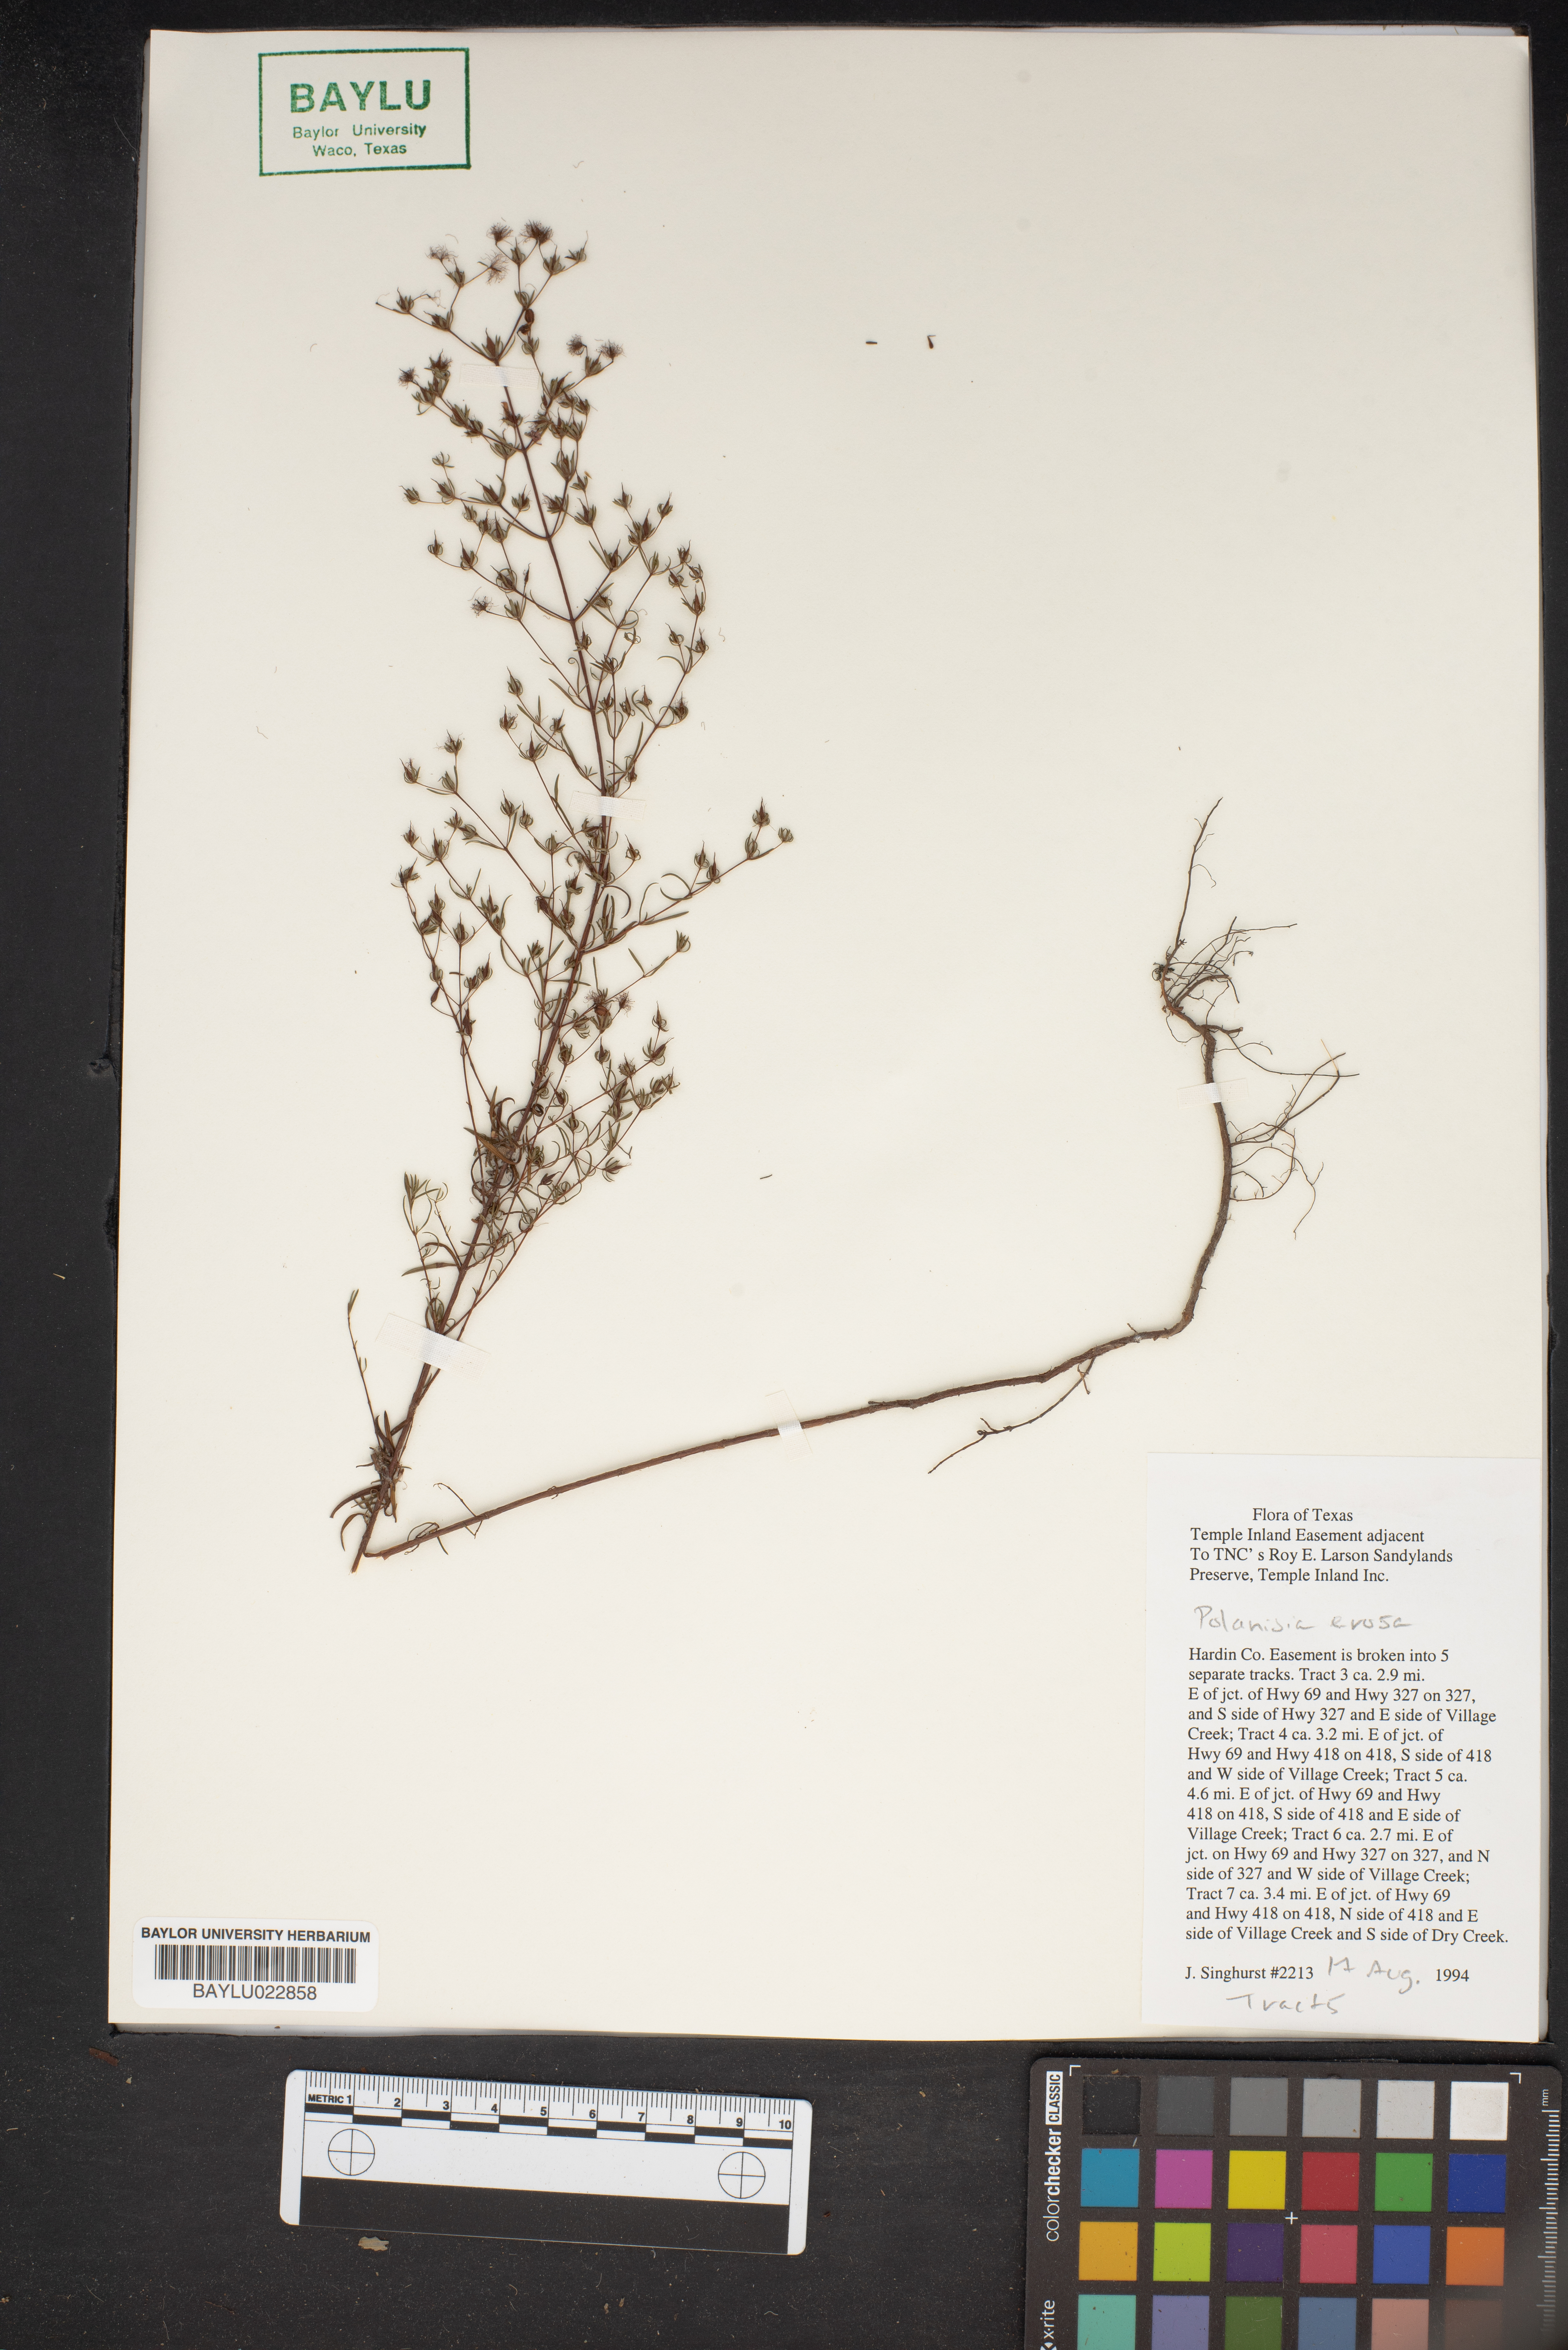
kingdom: Plantae
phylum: Tracheophyta
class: Magnoliopsida
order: Brassicales
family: Cleomaceae
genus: Polanisia
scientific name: Polanisia erosa
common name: Large clammyweed
